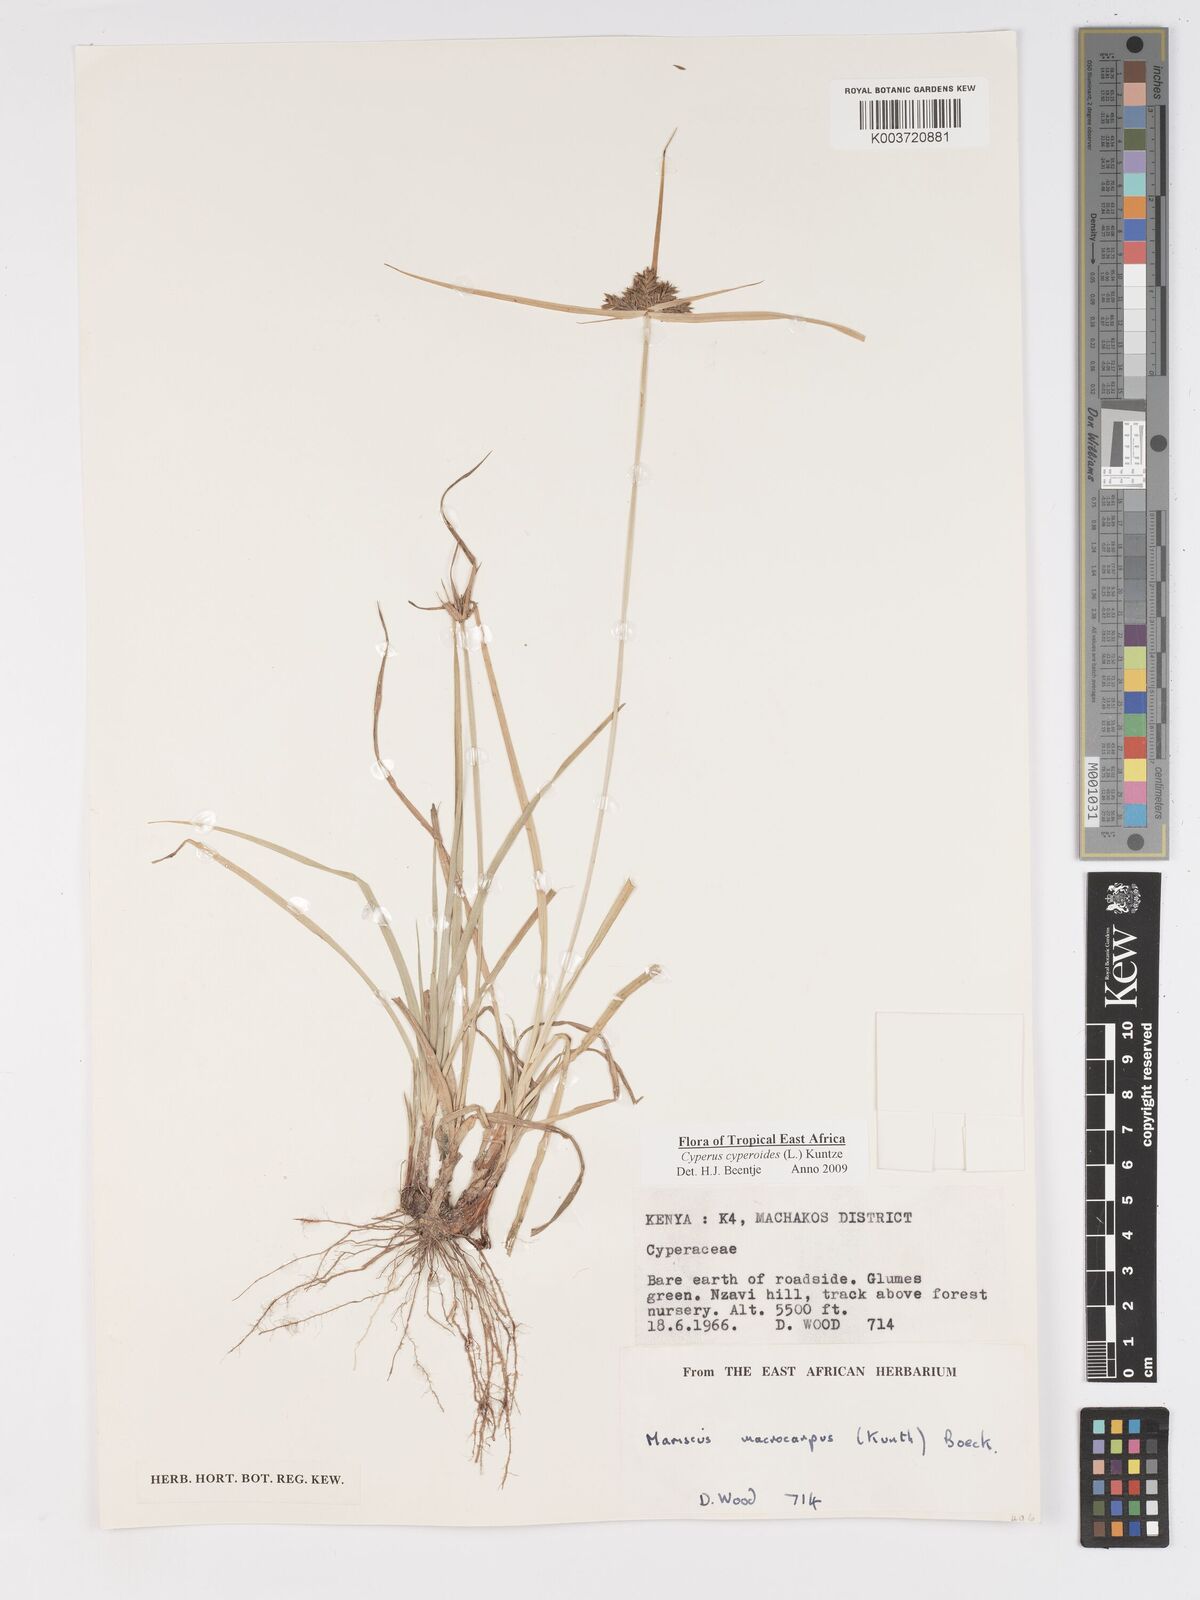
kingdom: Plantae
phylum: Tracheophyta
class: Liliopsida
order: Poales
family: Cyperaceae
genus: Cyperus
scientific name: Cyperus macrocarpus
